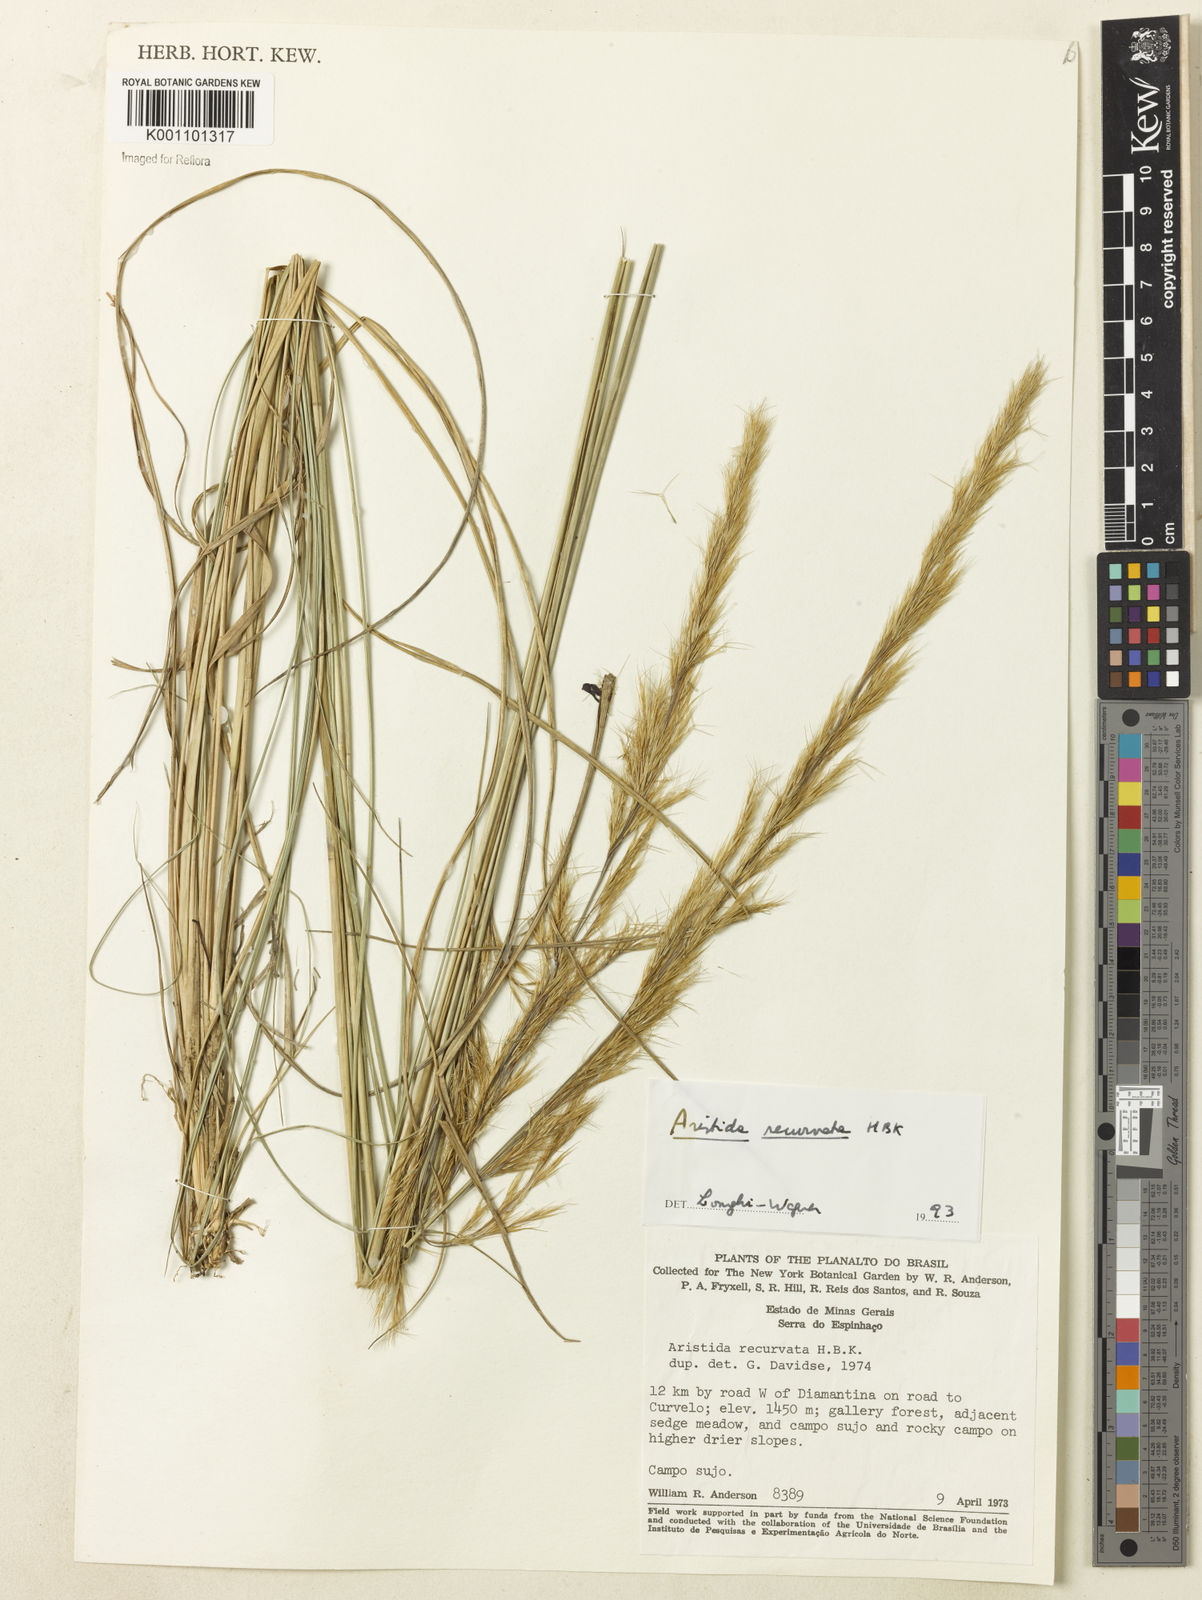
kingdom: Plantae
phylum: Tracheophyta
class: Liliopsida
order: Poales
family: Poaceae
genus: Aristida
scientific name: Aristida recurvata
